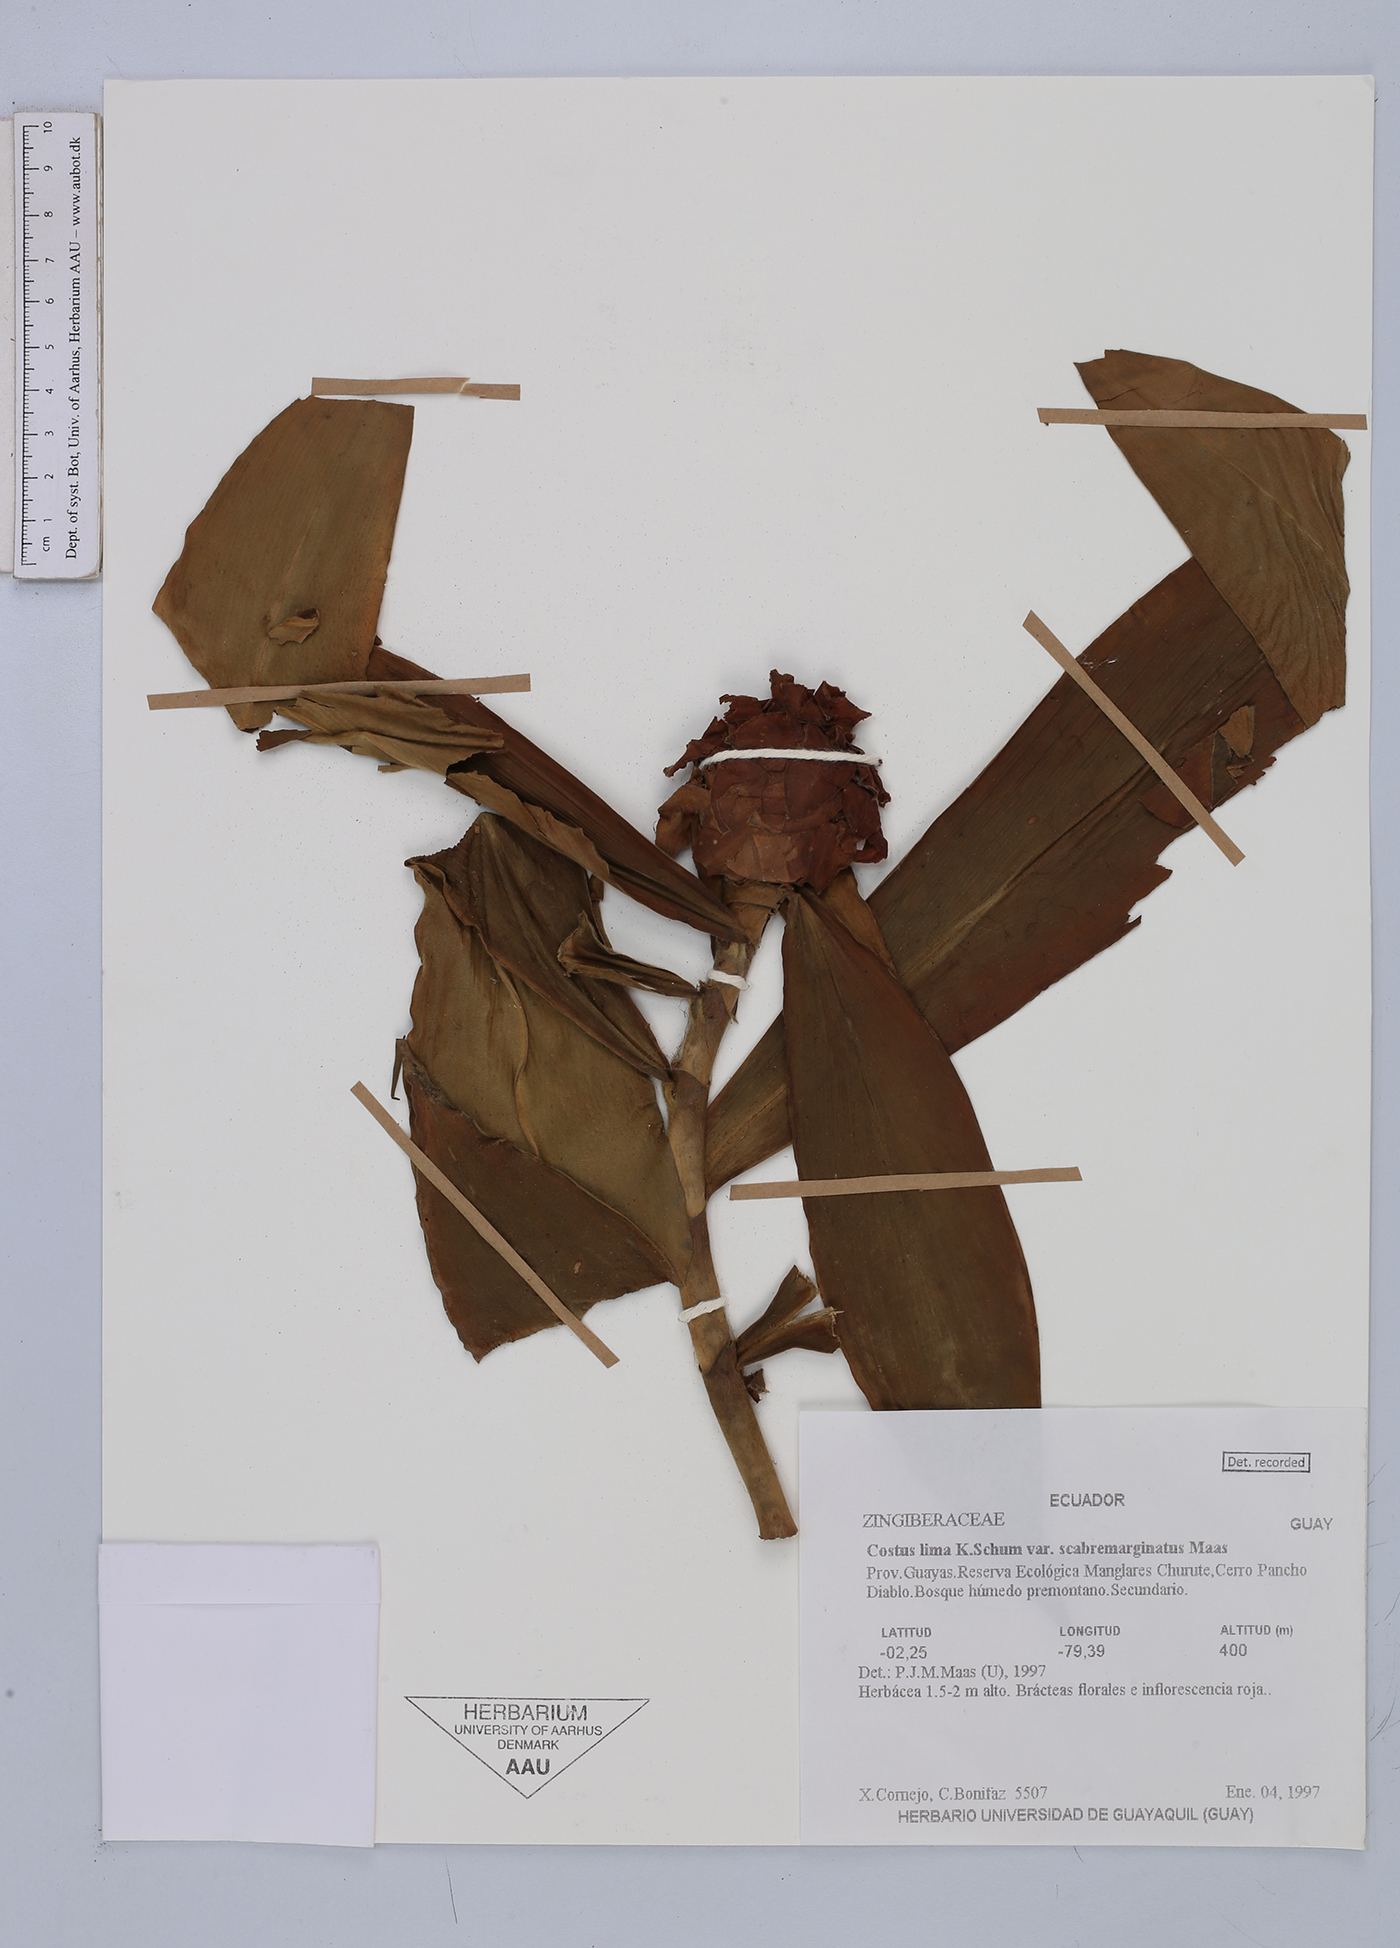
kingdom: Plantae
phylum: Tracheophyta
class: Liliopsida
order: Zingiberales
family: Costaceae
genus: Costus
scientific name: Costus lima
